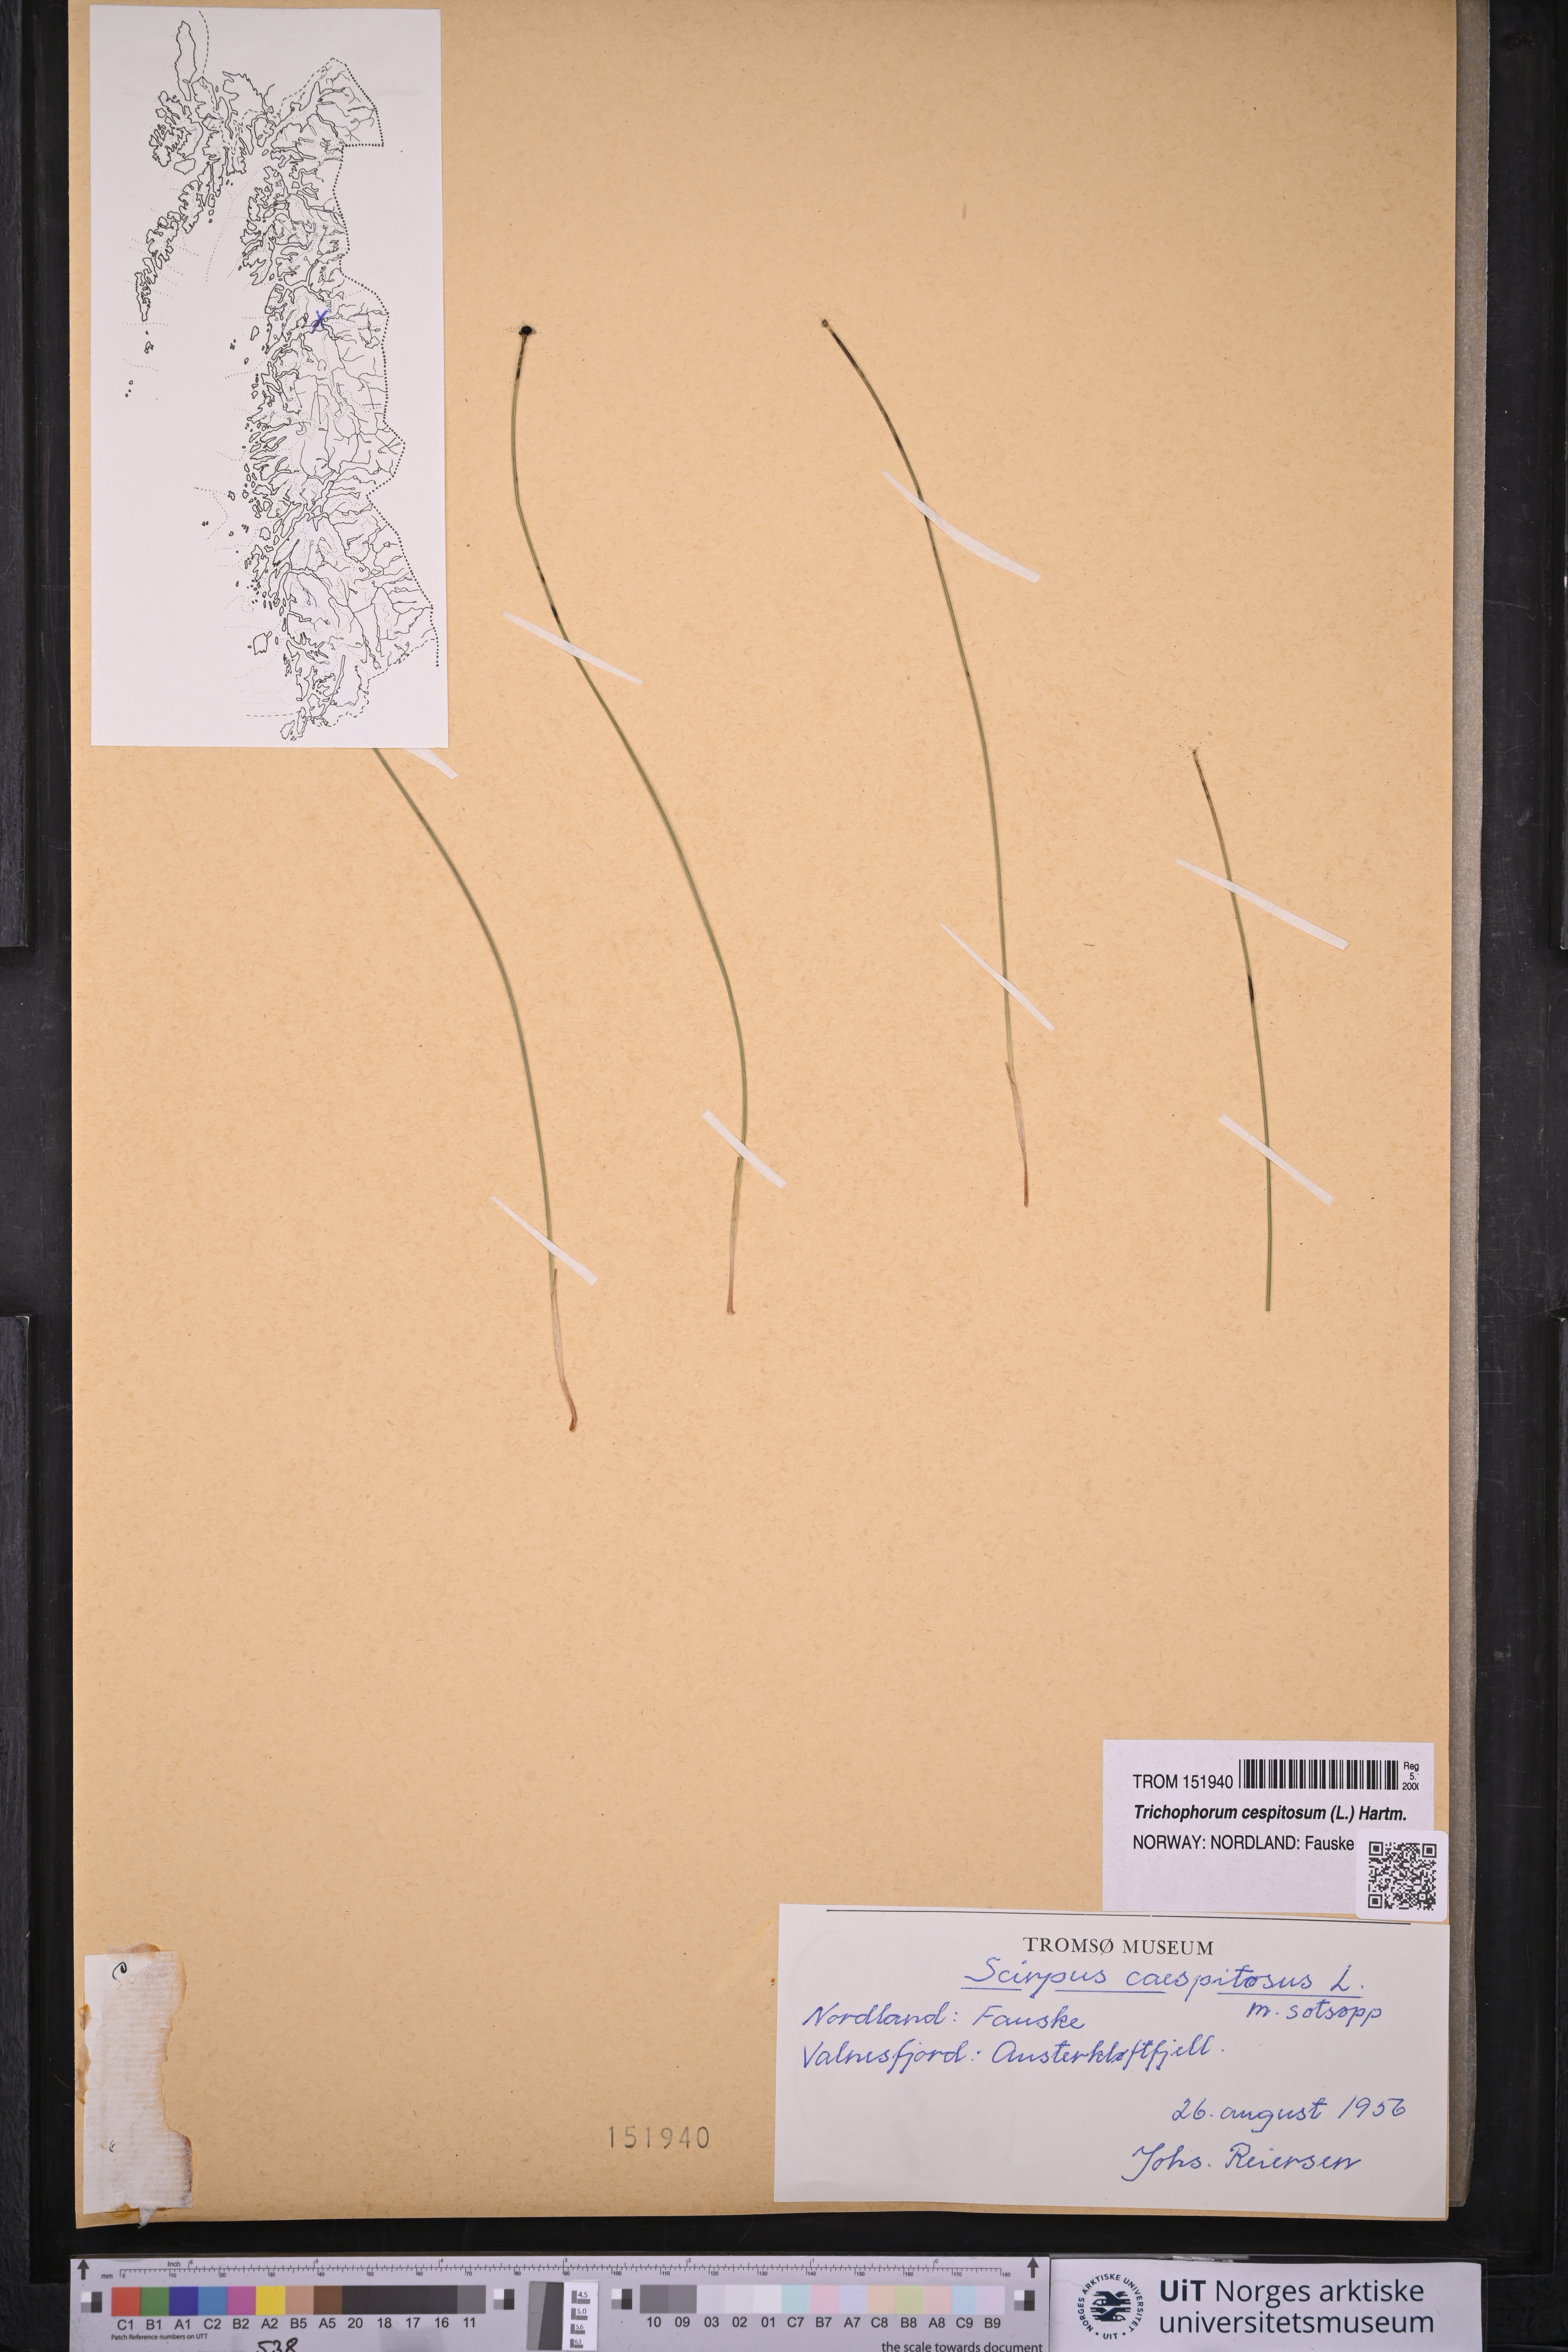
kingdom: Plantae
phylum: Tracheophyta
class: Liliopsida
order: Poales
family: Cyperaceae
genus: Trichophorum
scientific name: Trichophorum cespitosum
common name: Cespitose bulrush
